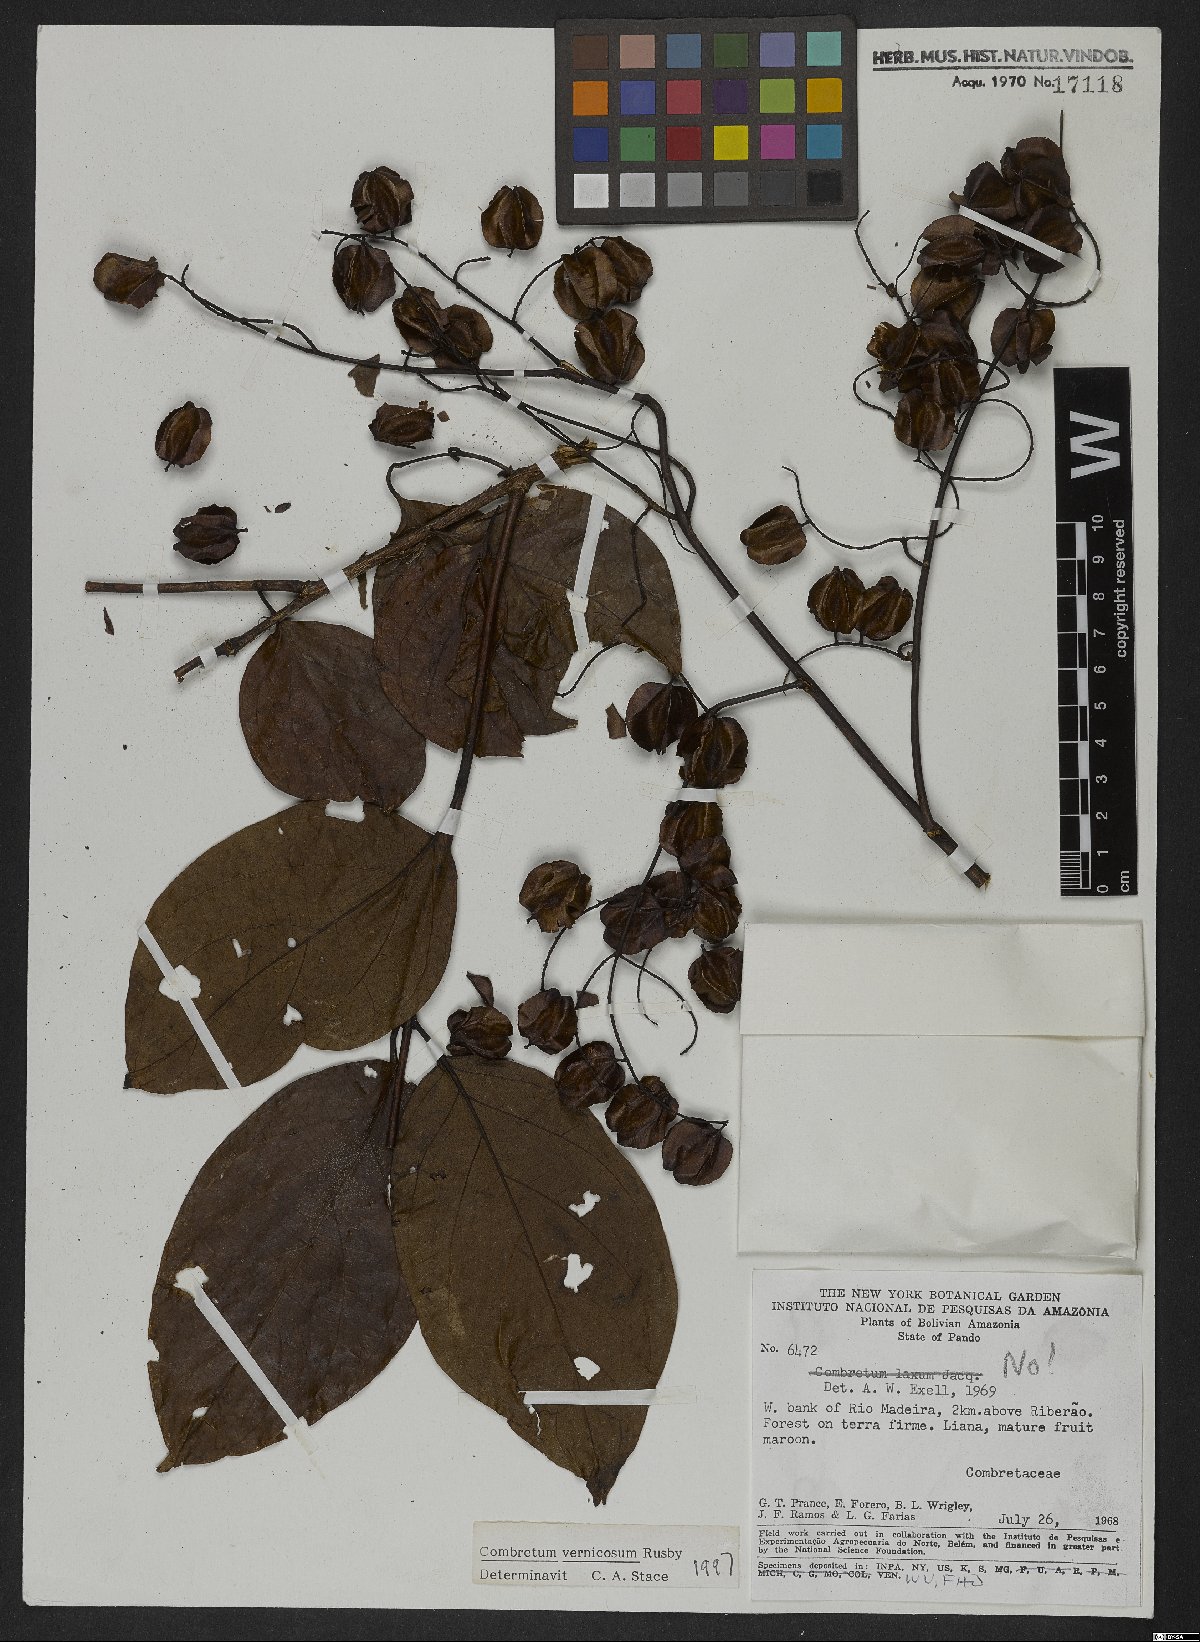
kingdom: Plantae
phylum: Tracheophyta
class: Magnoliopsida
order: Myrtales
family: Combretaceae
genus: Combretum
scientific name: Combretum vernicosum
